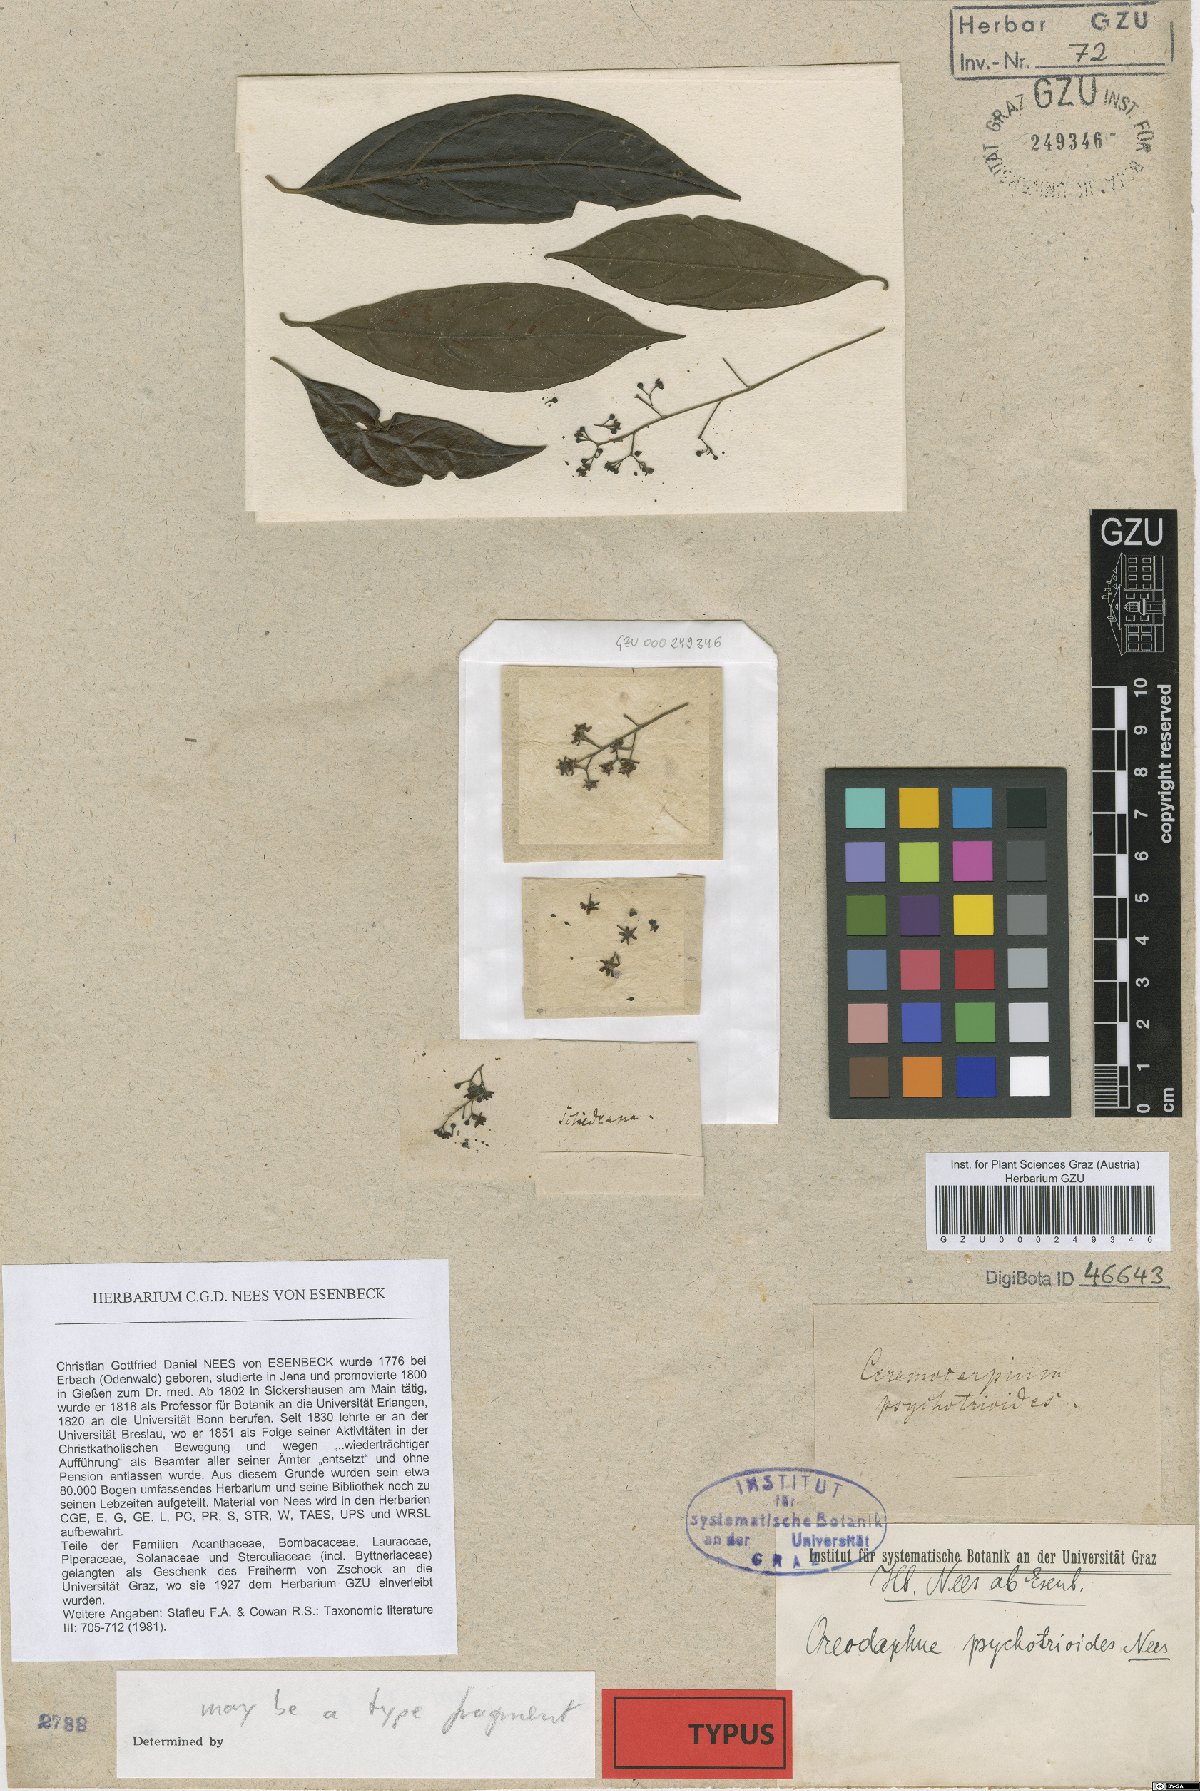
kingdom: Plantae
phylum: Tracheophyta
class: Magnoliopsida
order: Laurales
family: Lauraceae
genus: Ocotea
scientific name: Ocotea psychotrioides
